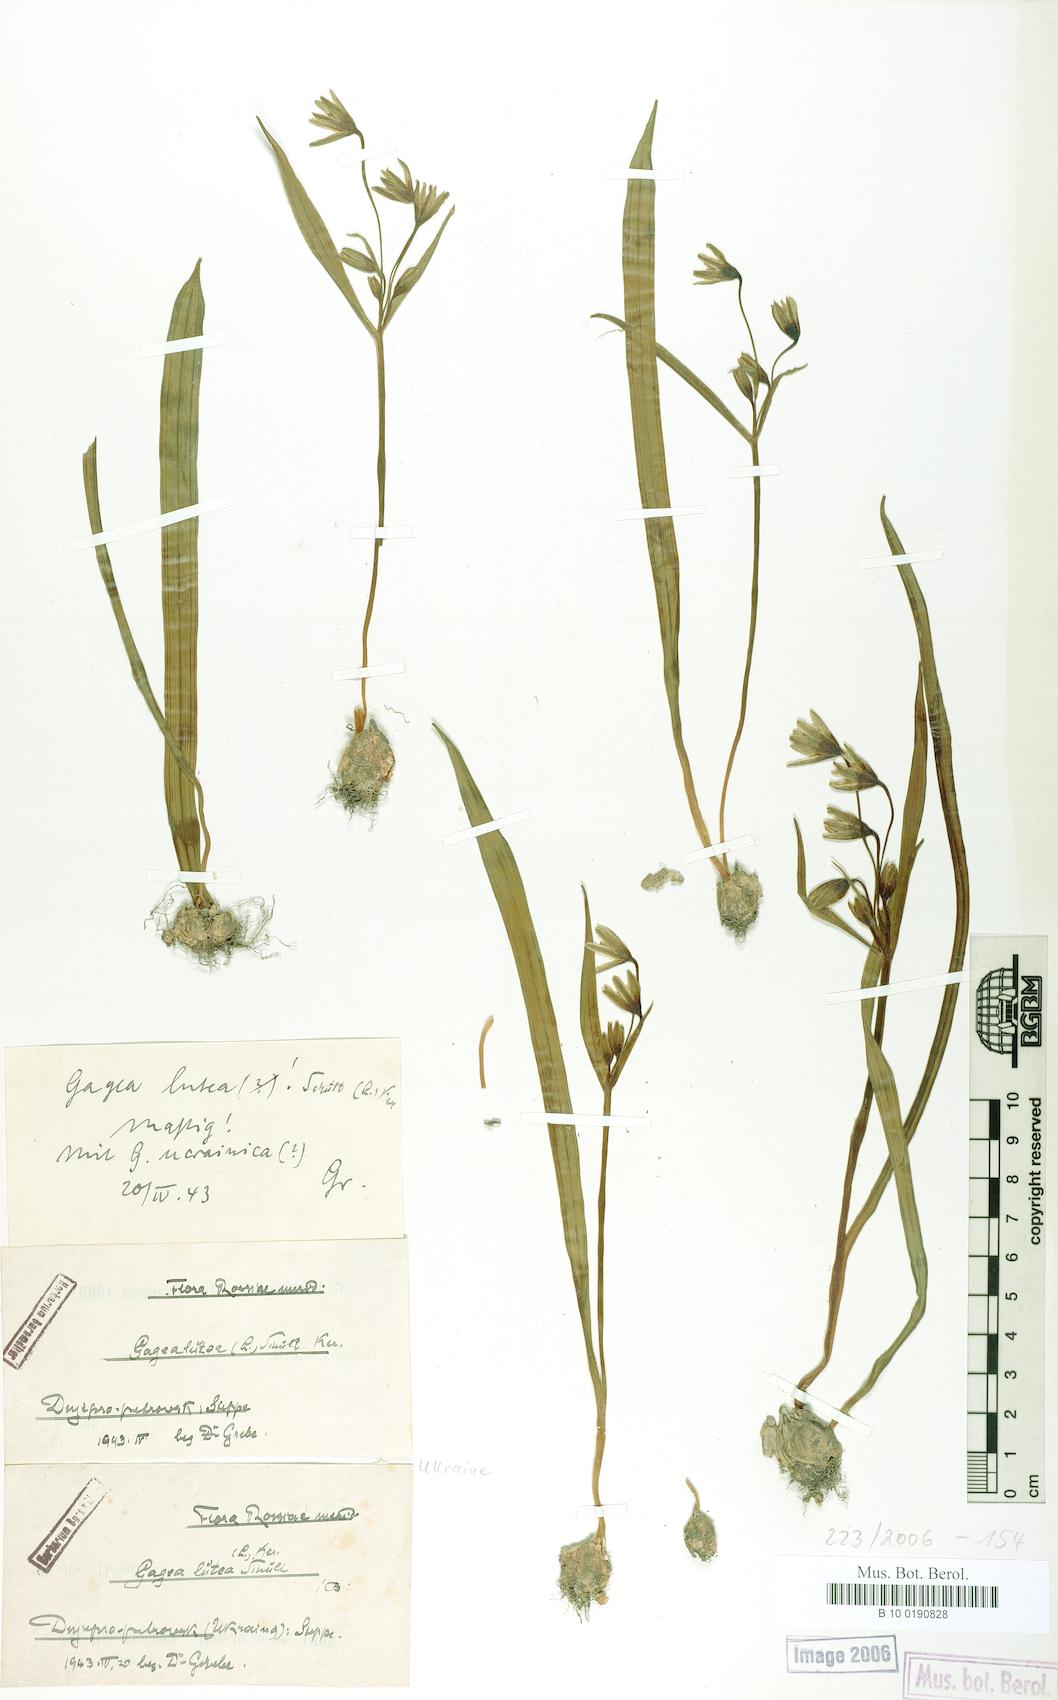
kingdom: Plantae
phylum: Tracheophyta
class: Liliopsida
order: Liliales
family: Liliaceae
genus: Gagea
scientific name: Gagea lutea
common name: Yellow star-of-bethlehem
